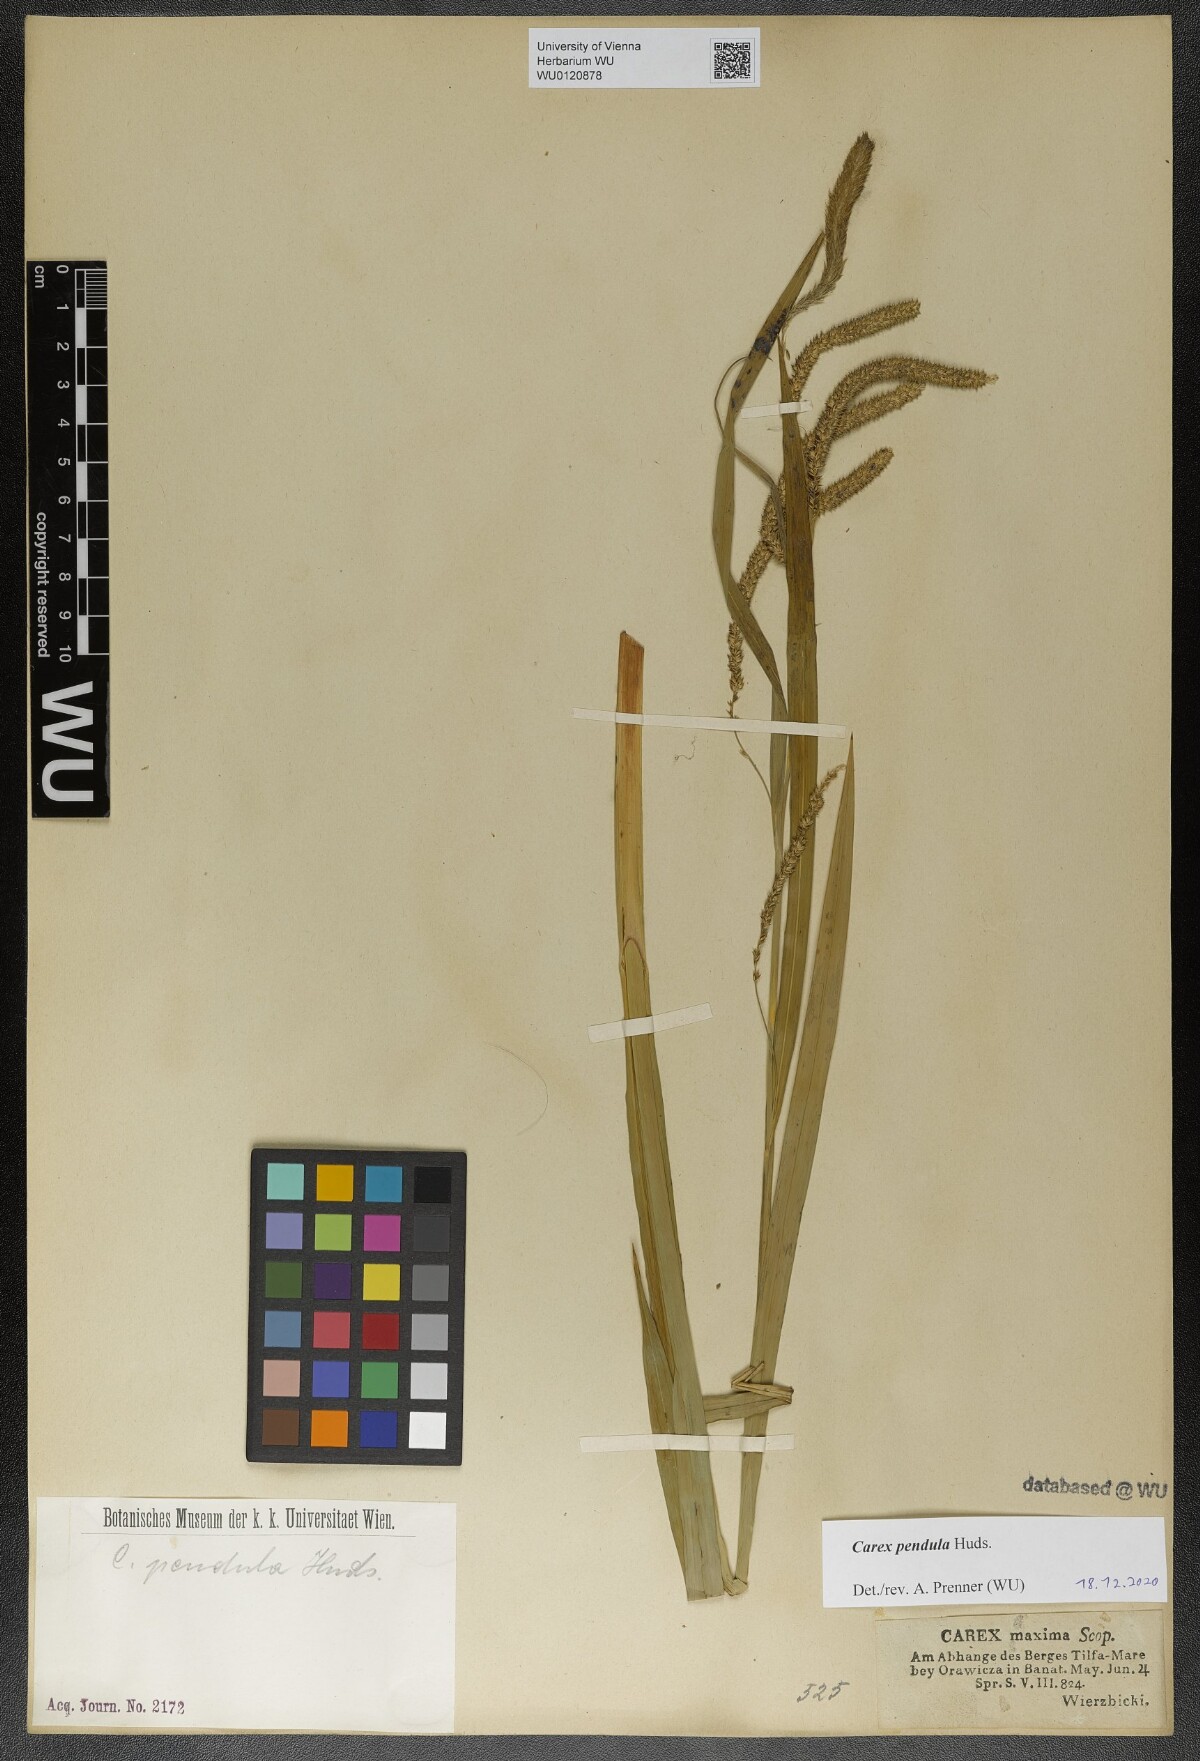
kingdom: Plantae
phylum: Tracheophyta
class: Liliopsida
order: Poales
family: Cyperaceae
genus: Carex
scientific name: Carex pendula
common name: Pendulous sedge
